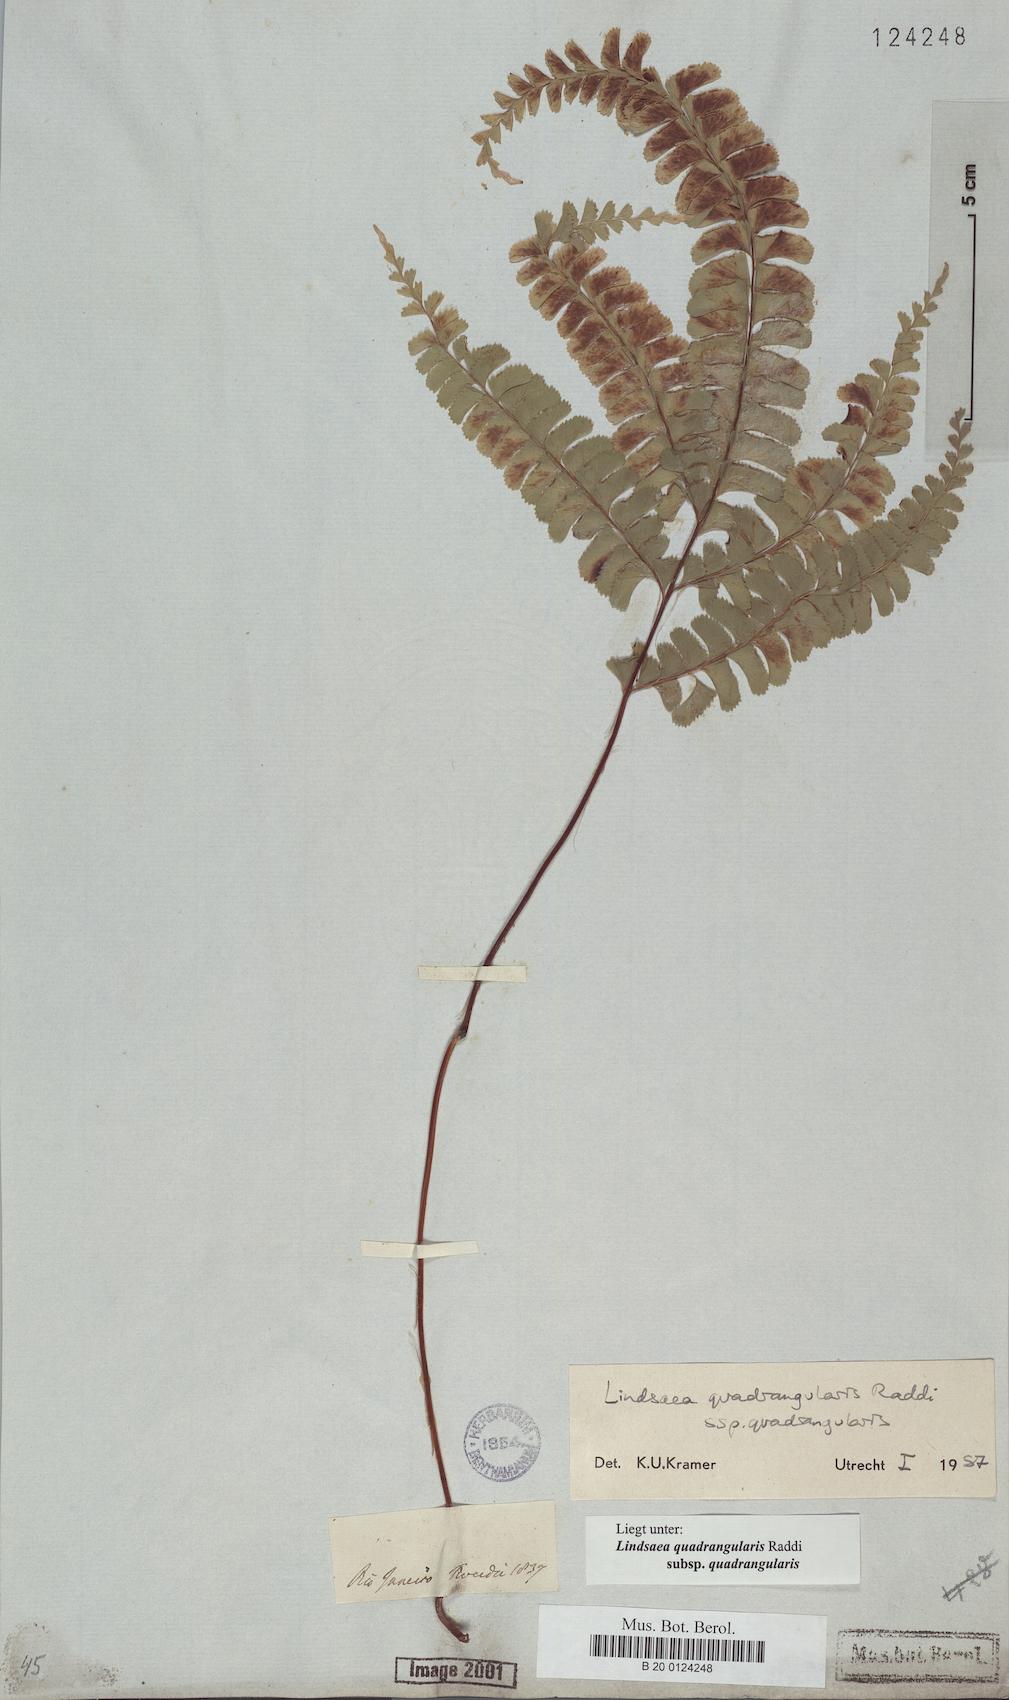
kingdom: Plantae
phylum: Tracheophyta
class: Polypodiopsida
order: Polypodiales
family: Lindsaeaceae
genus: Lindsaea
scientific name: Lindsaea quadrangularis
